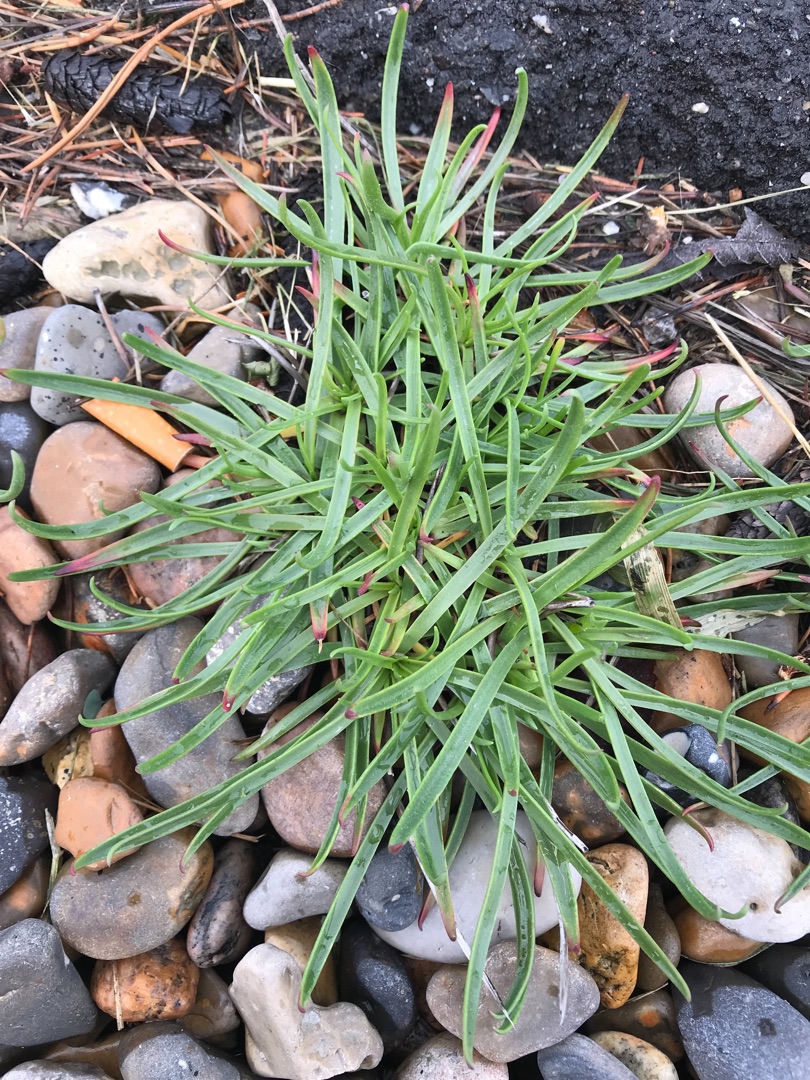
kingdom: Plantae
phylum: Tracheophyta
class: Magnoliopsida
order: Lamiales
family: Plantaginaceae
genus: Plantago
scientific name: Plantago maritima
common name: Strand-vejbred
